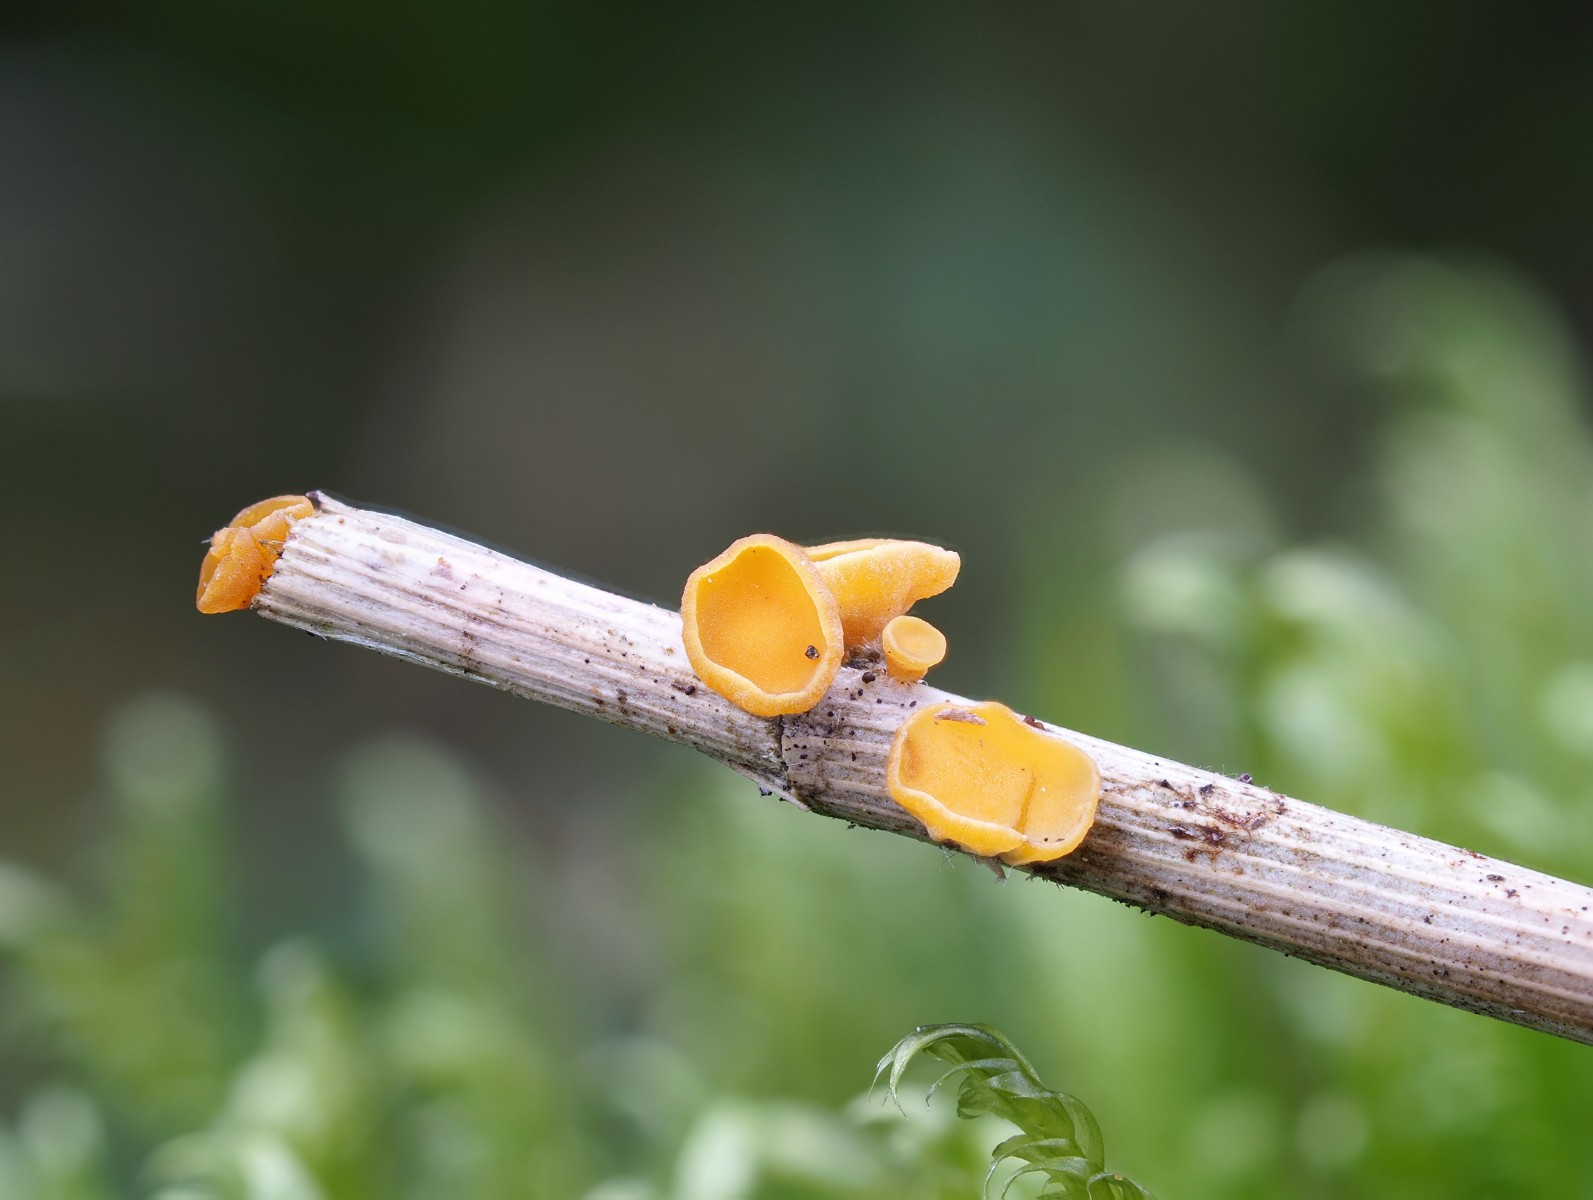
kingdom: Fungi
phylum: Ascomycota
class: Leotiomycetes
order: Helotiales
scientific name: Helotiales
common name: stilkskiveordenen
